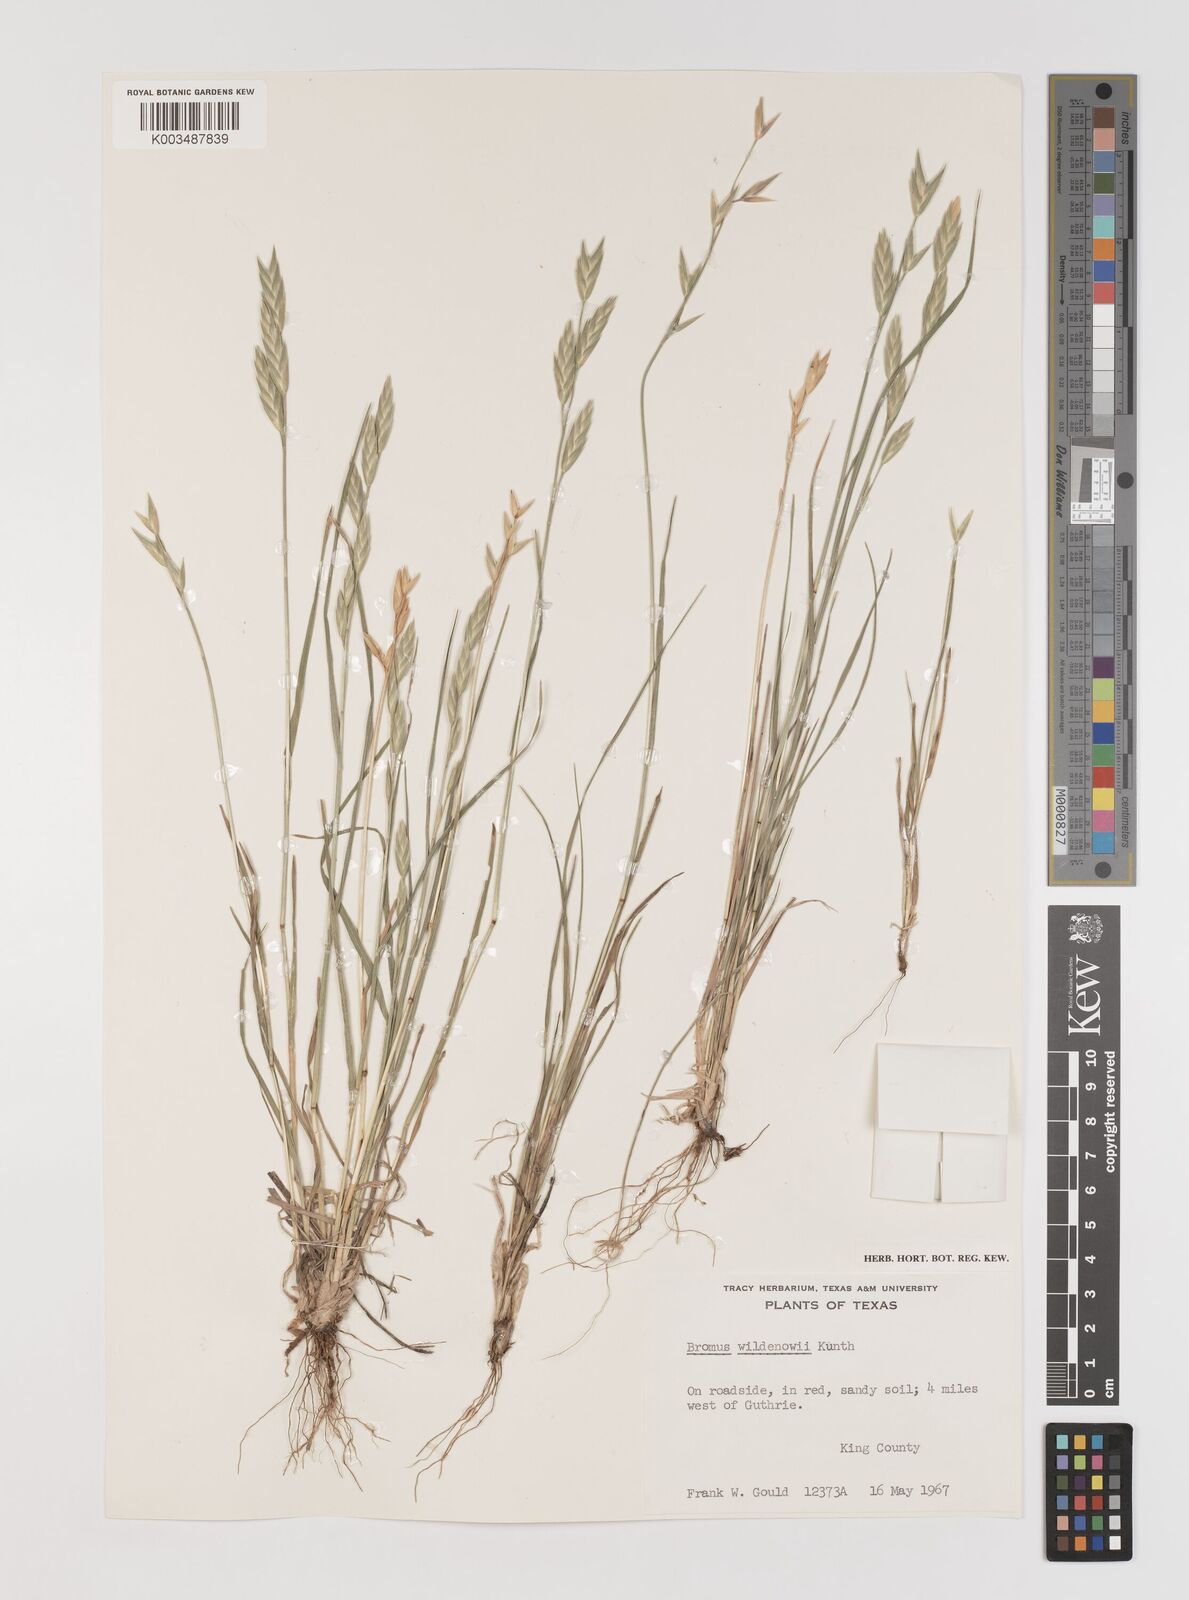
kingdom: Plantae
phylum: Tracheophyta
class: Liliopsida
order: Poales
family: Poaceae
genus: Bromus
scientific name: Bromus catharticus
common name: Rescuegrass
